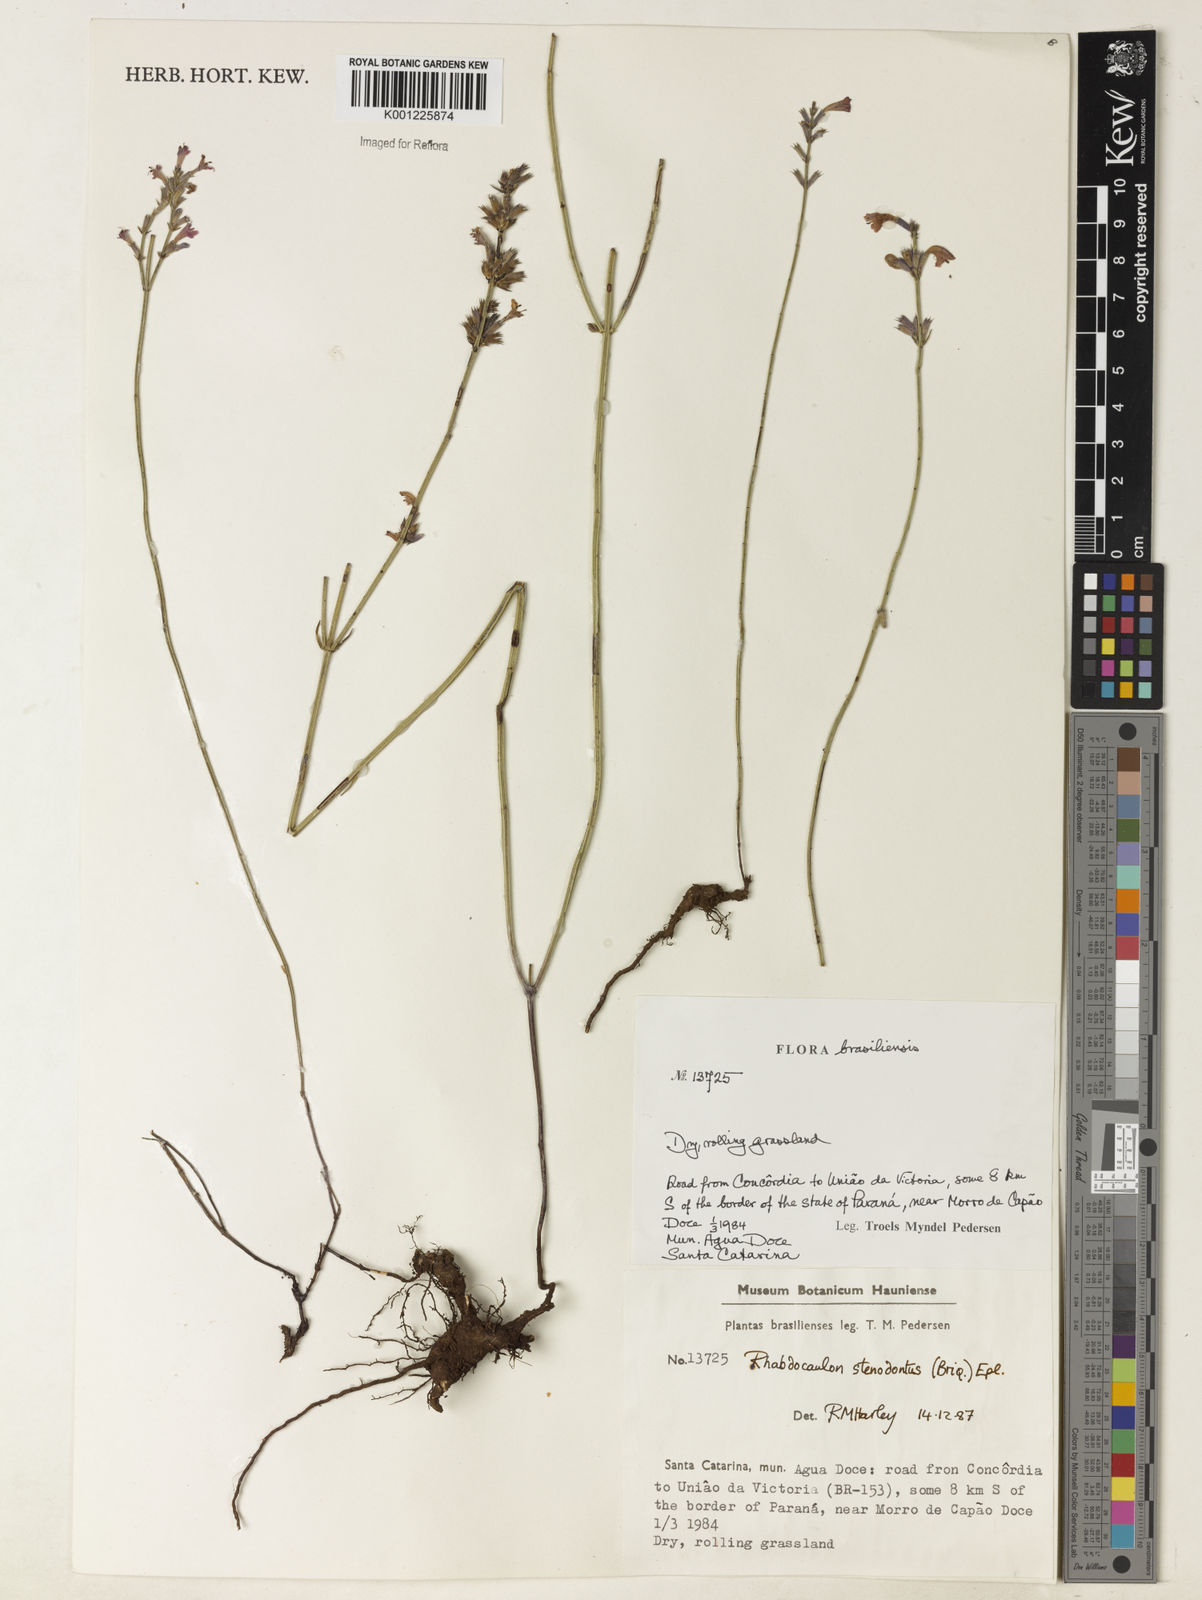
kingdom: Plantae
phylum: Tracheophyta
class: Magnoliopsida
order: Lamiales
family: Lamiaceae
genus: Rhabdocaulon
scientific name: Rhabdocaulon stenodontum
